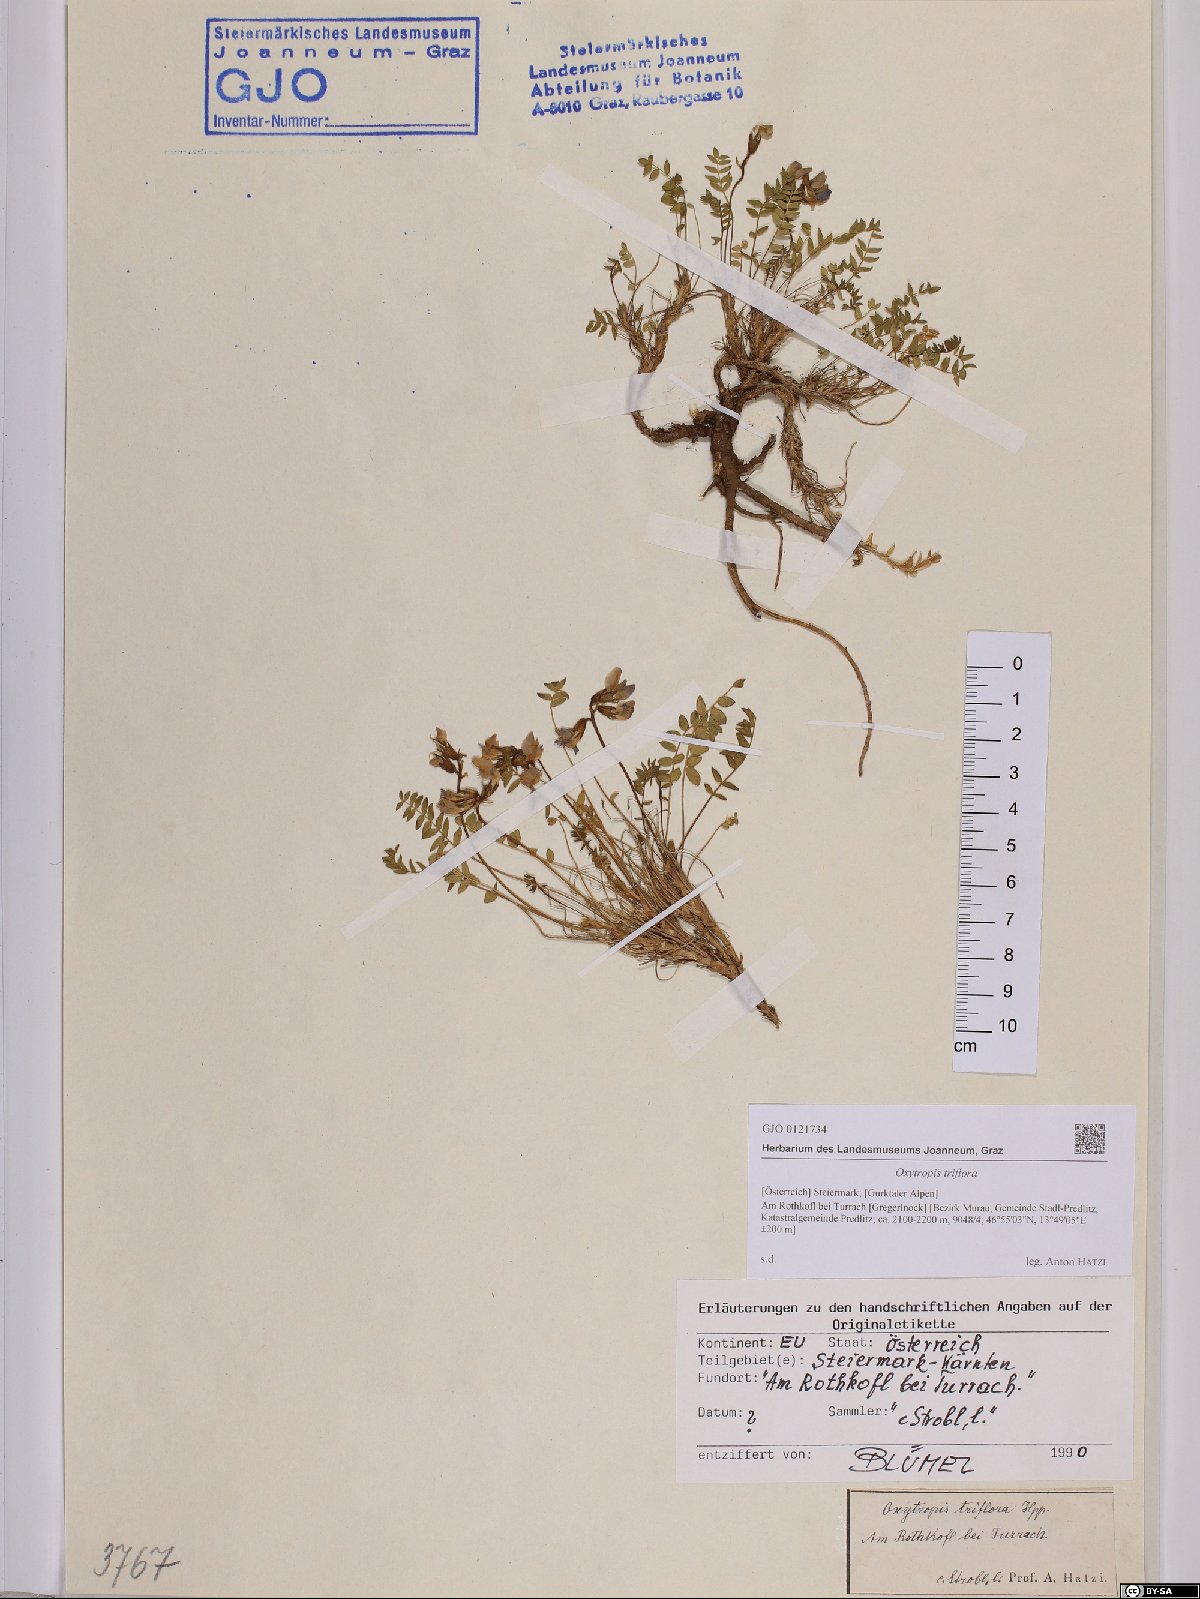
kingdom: Plantae
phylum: Tracheophyta
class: Magnoliopsida
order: Fabales
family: Fabaceae
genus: Oxytropis
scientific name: Oxytropis triflora
